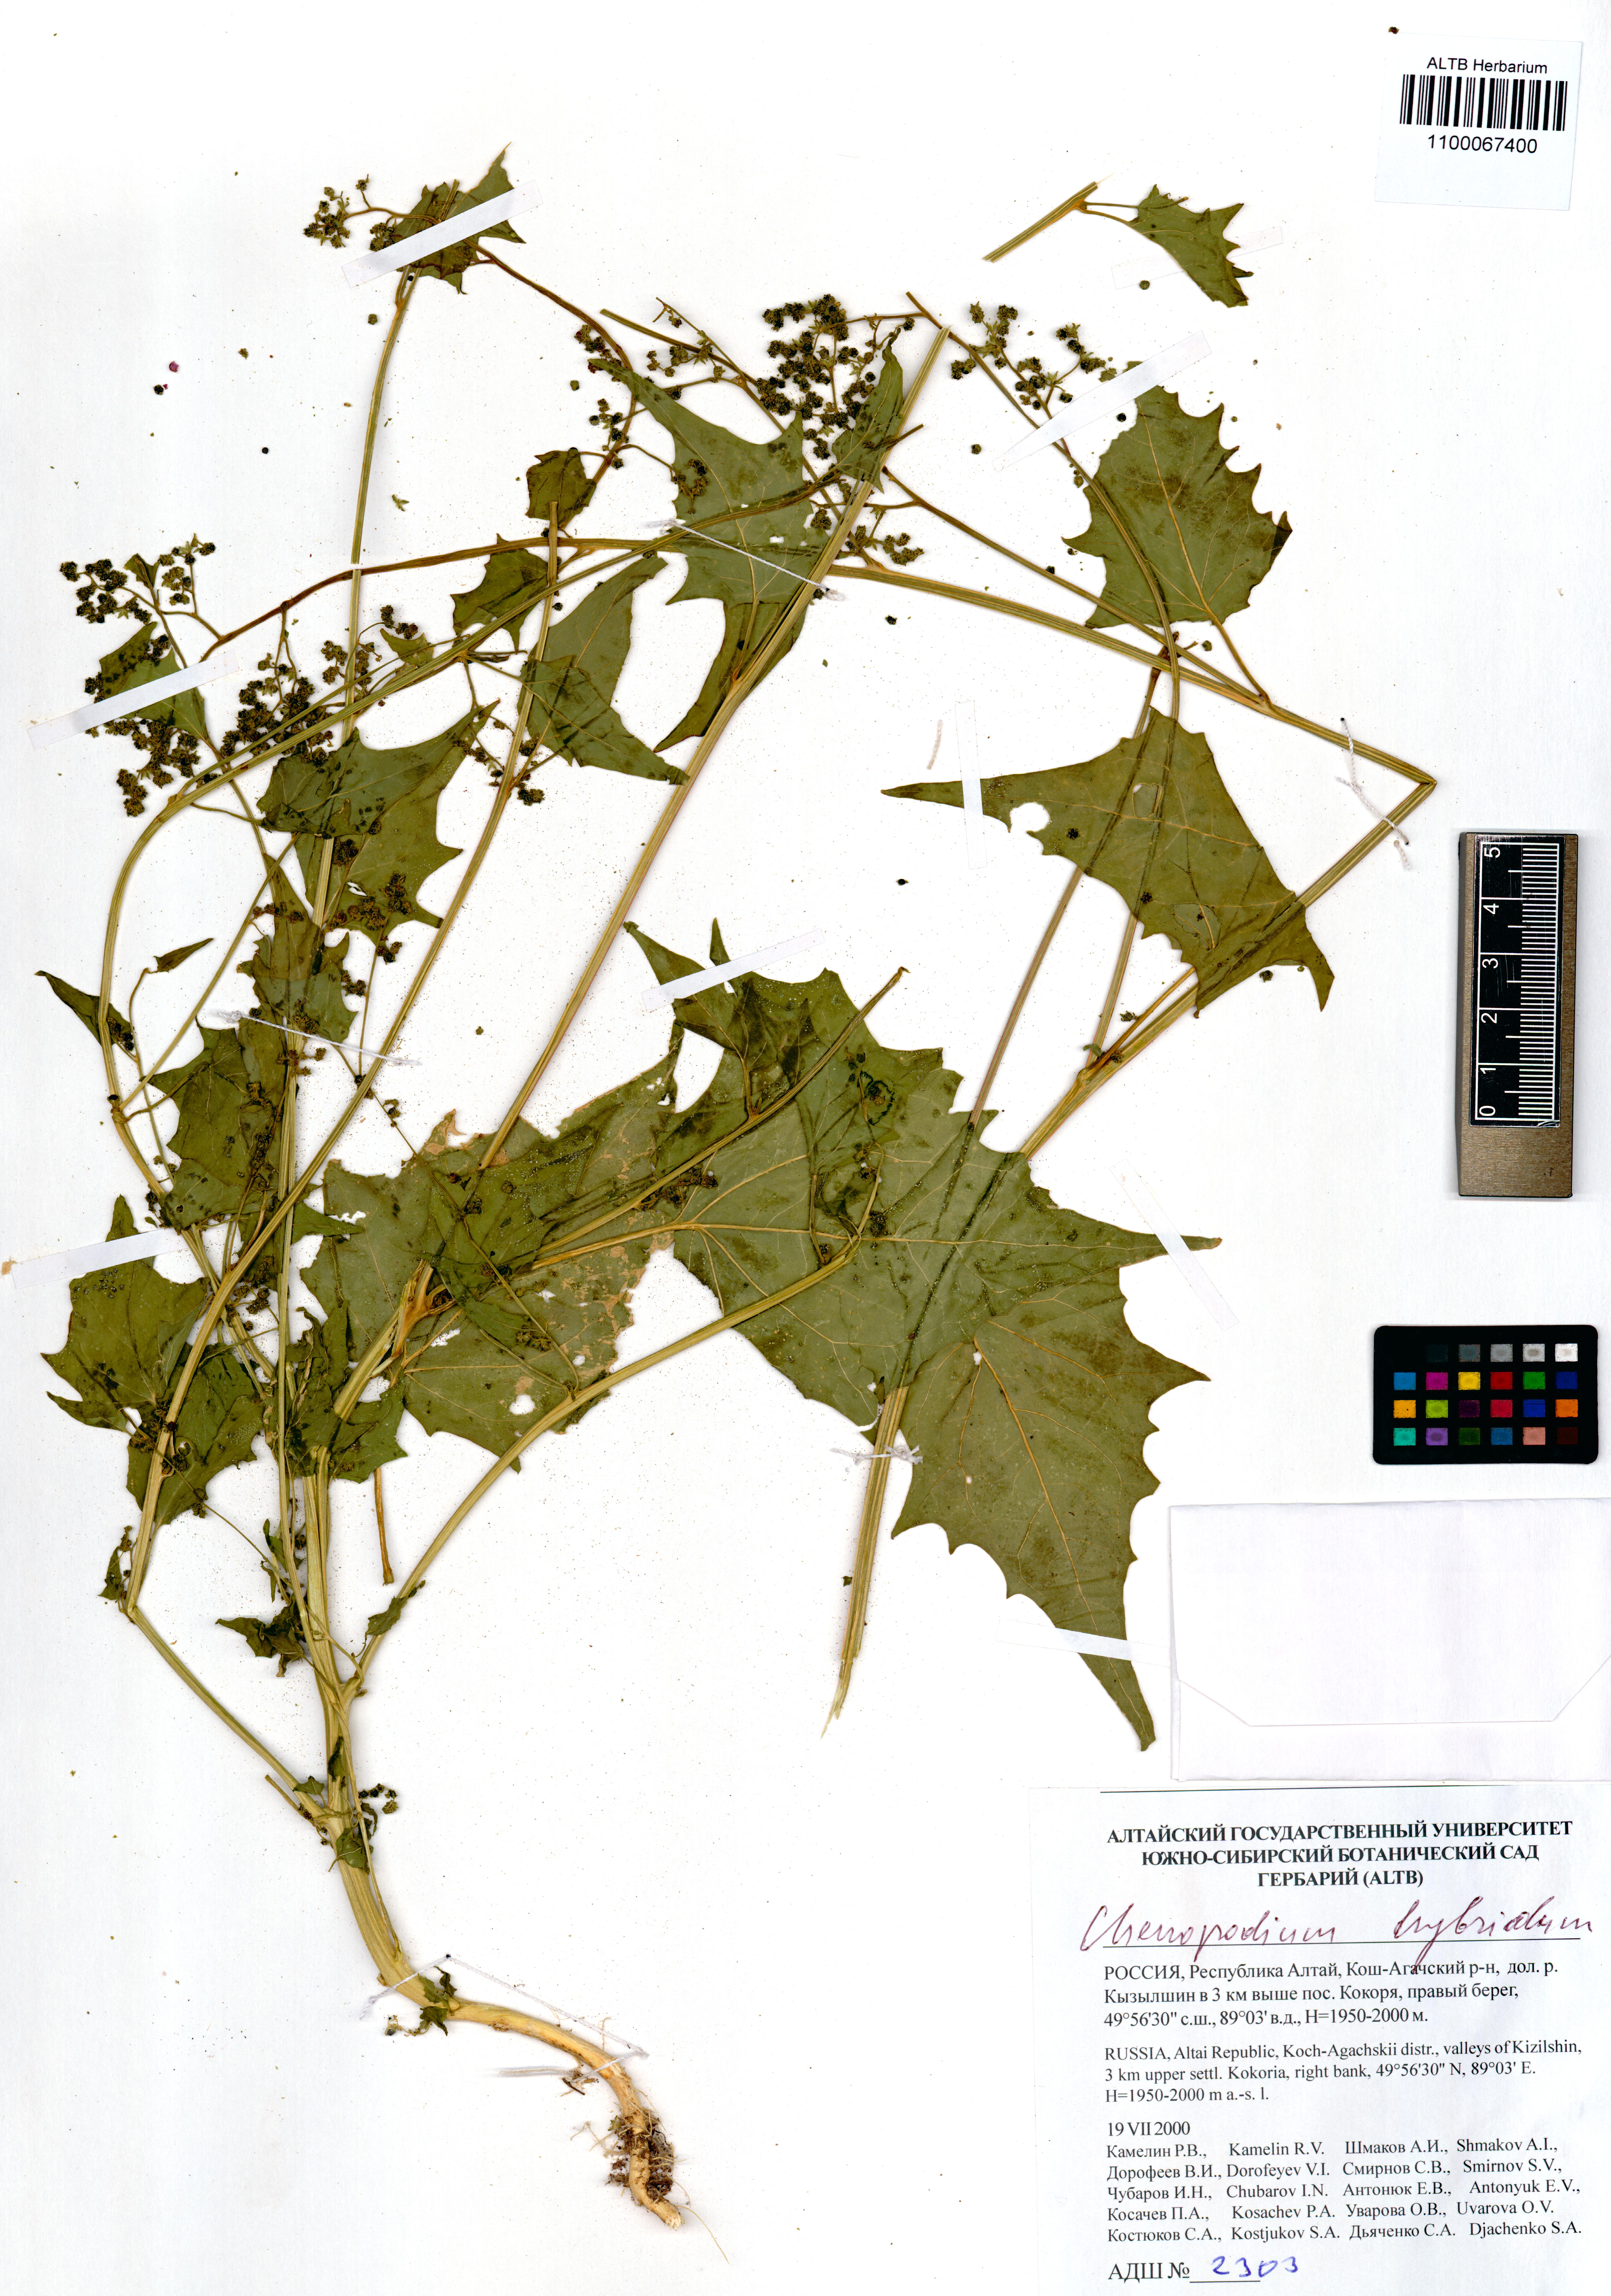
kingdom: Plantae
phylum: Tracheophyta
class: Magnoliopsida
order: Caryophyllales
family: Amaranthaceae
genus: Chenopodiastrum
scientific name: Chenopodiastrum hybridum
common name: Mapleleaf goosefoot
